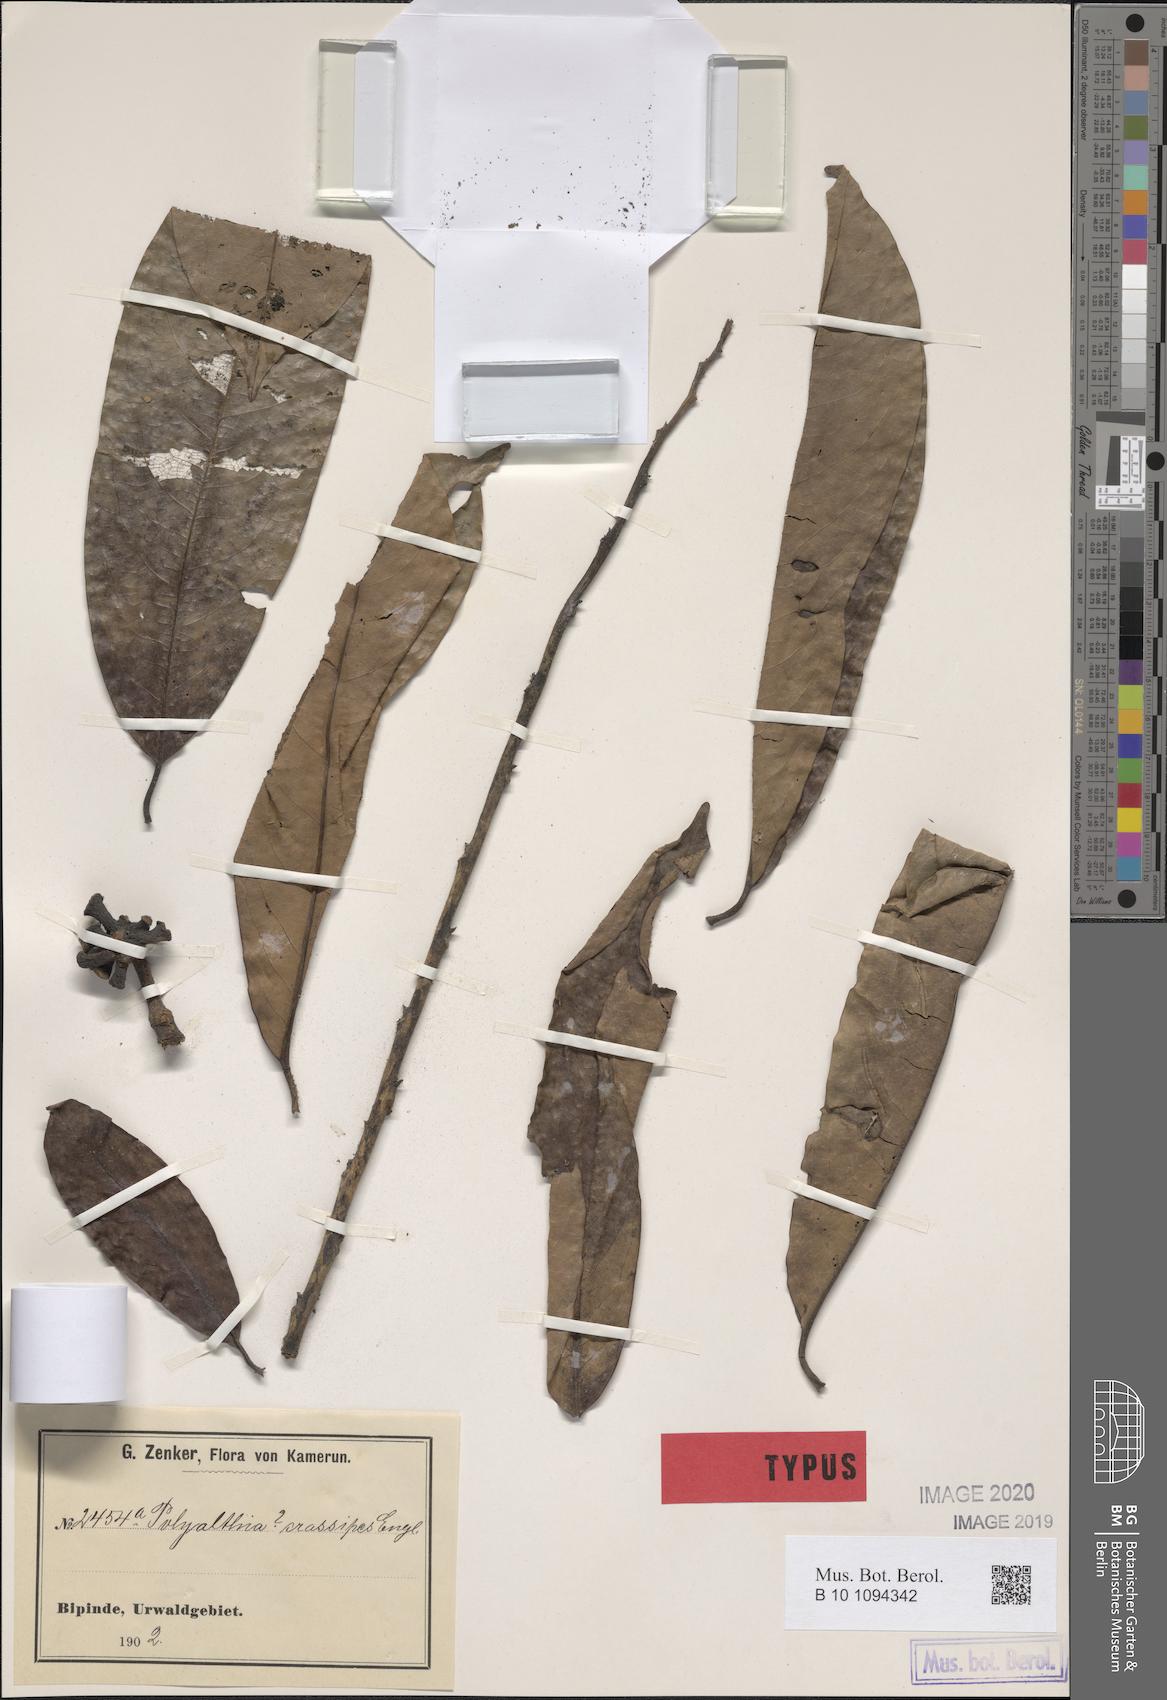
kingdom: Plantae
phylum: Tracheophyta
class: Magnoliopsida
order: Magnoliales
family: Annonaceae
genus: Cleistopholis
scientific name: Cleistopholis staudtii
